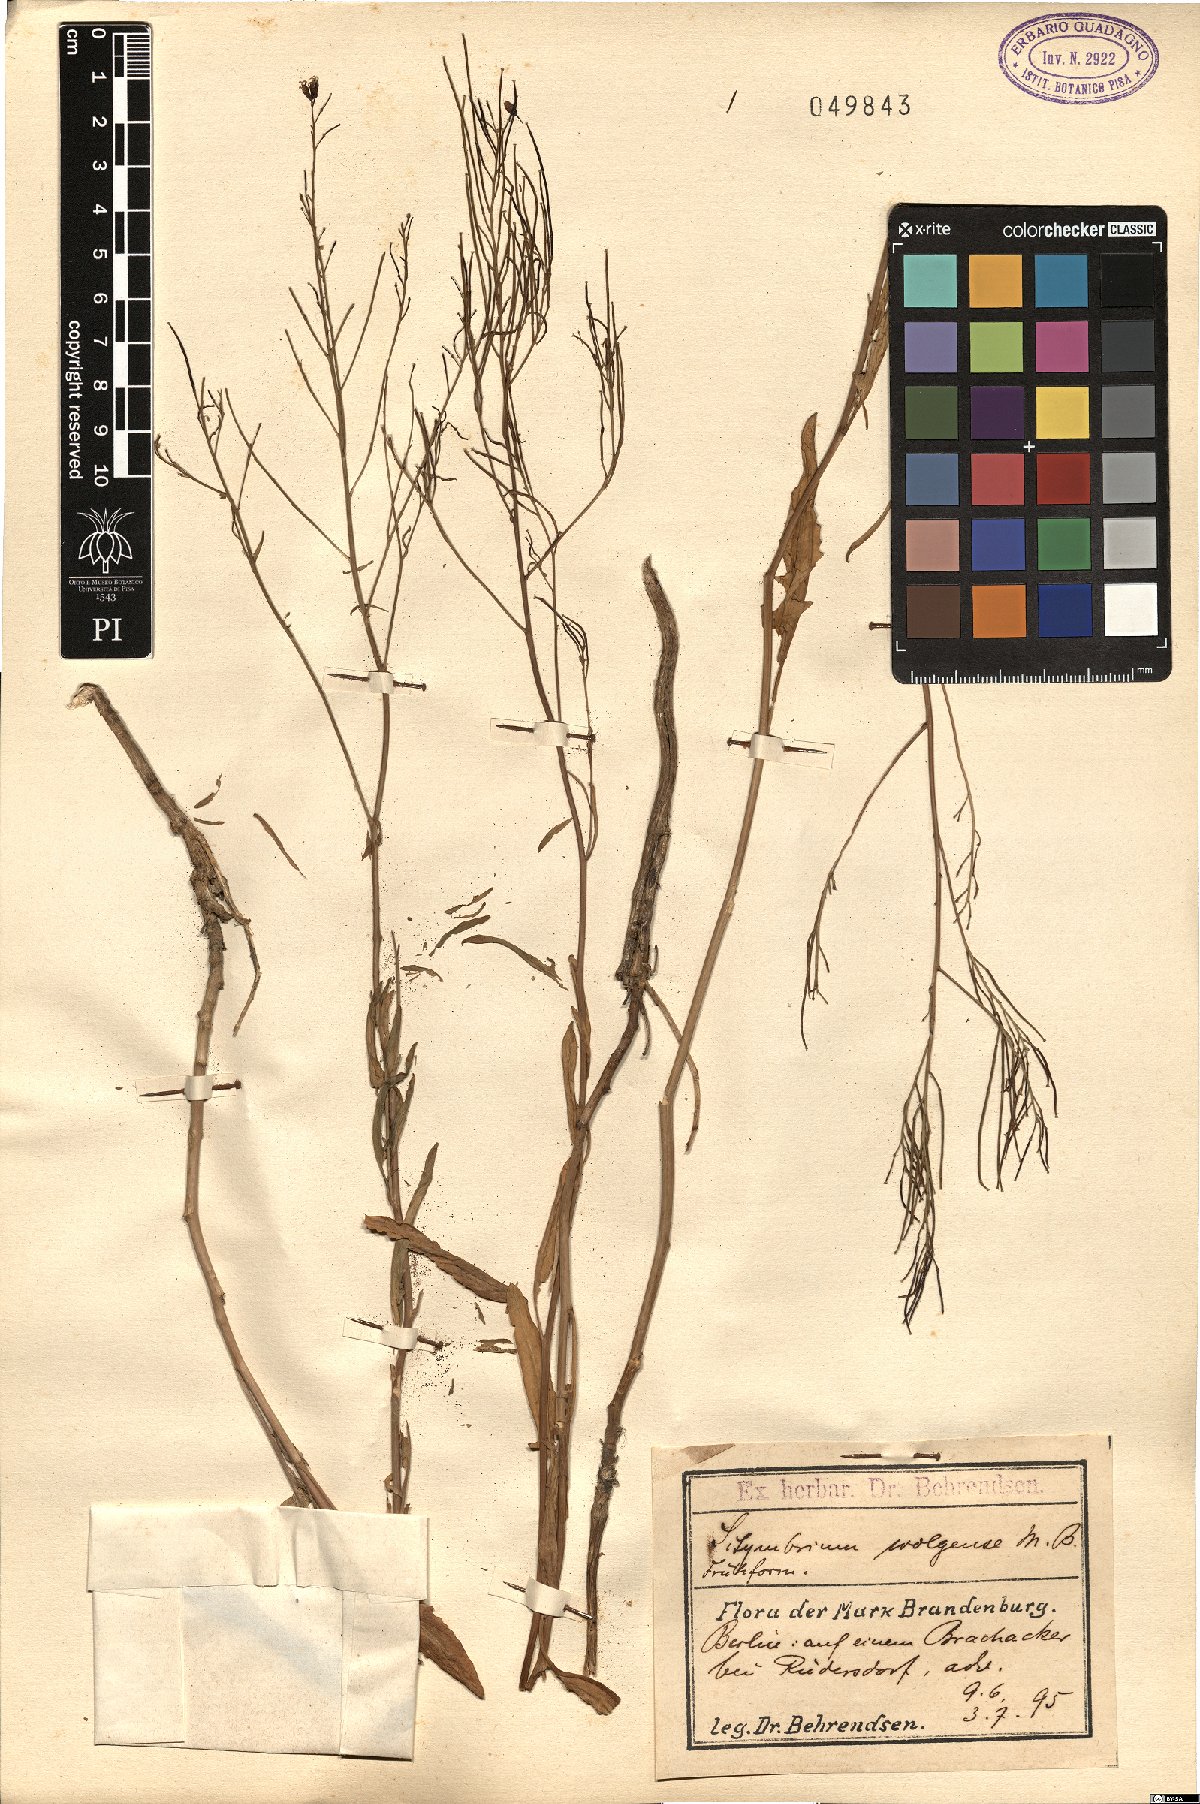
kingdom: Plantae
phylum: Tracheophyta
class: Magnoliopsida
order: Brassicales
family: Brassicaceae
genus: Sisymbrium
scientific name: Sisymbrium volgense
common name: Russian mustard
